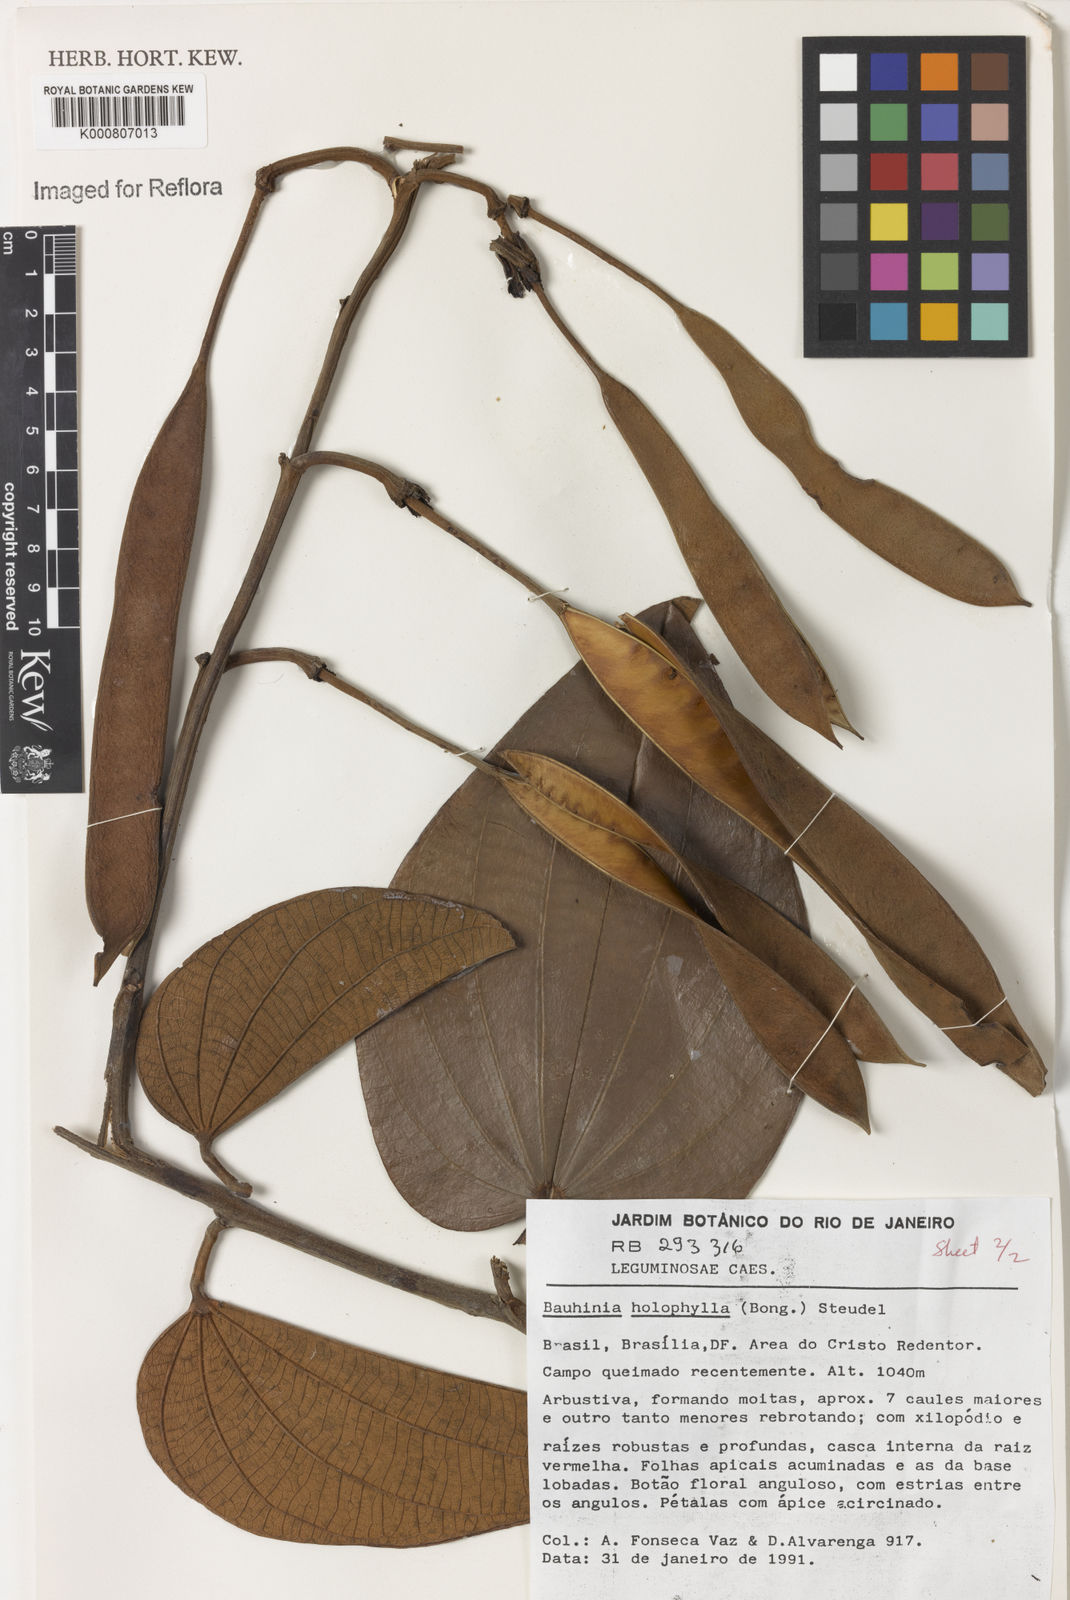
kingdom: Plantae
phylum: Tracheophyta
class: Magnoliopsida
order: Fabales
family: Fabaceae
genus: Bauhinia
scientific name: Bauhinia holophylla
